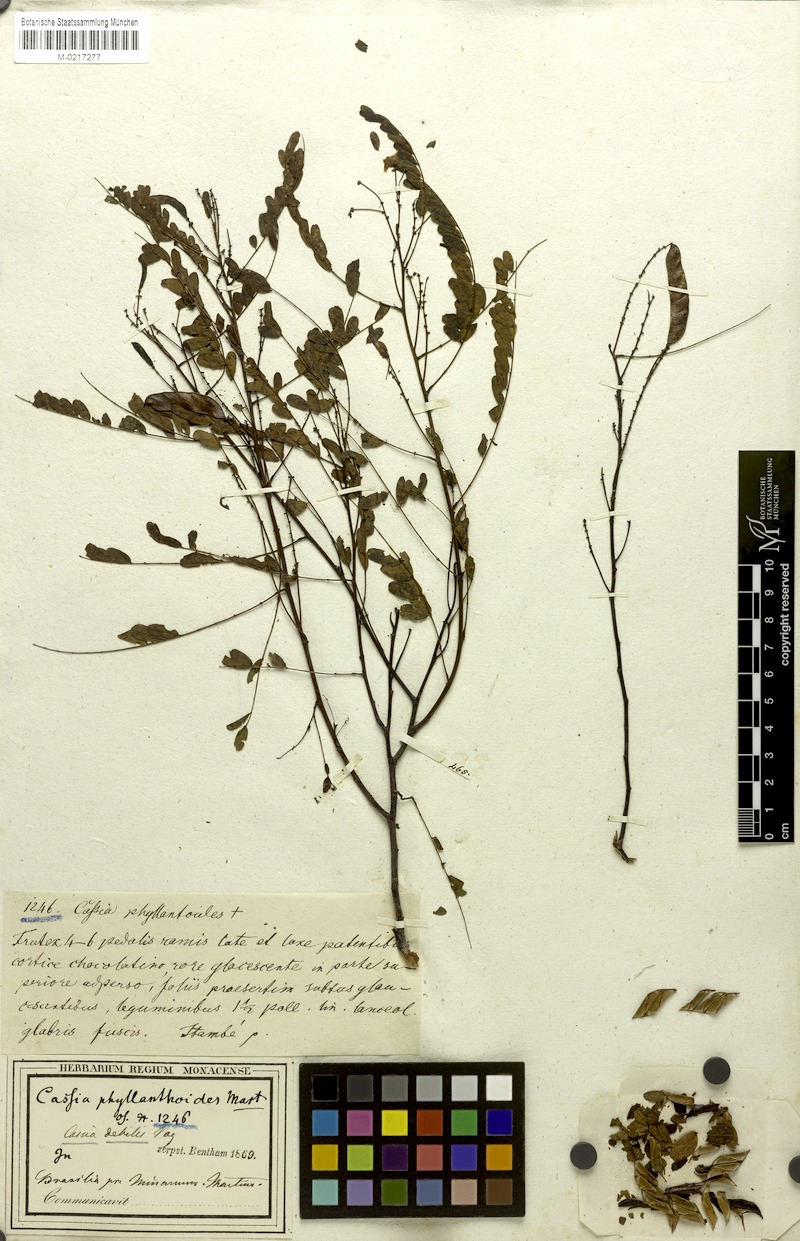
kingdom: Plantae
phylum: Tracheophyta
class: Magnoliopsida
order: Fabales
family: Fabaceae
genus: Chamaecrista
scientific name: Chamaecrista debilis
